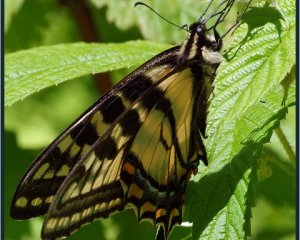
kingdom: Animalia
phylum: Arthropoda
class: Insecta
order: Lepidoptera
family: Papilionidae
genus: Pterourus
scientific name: Pterourus canadensis
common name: Canadian Tiger Swallowtail
